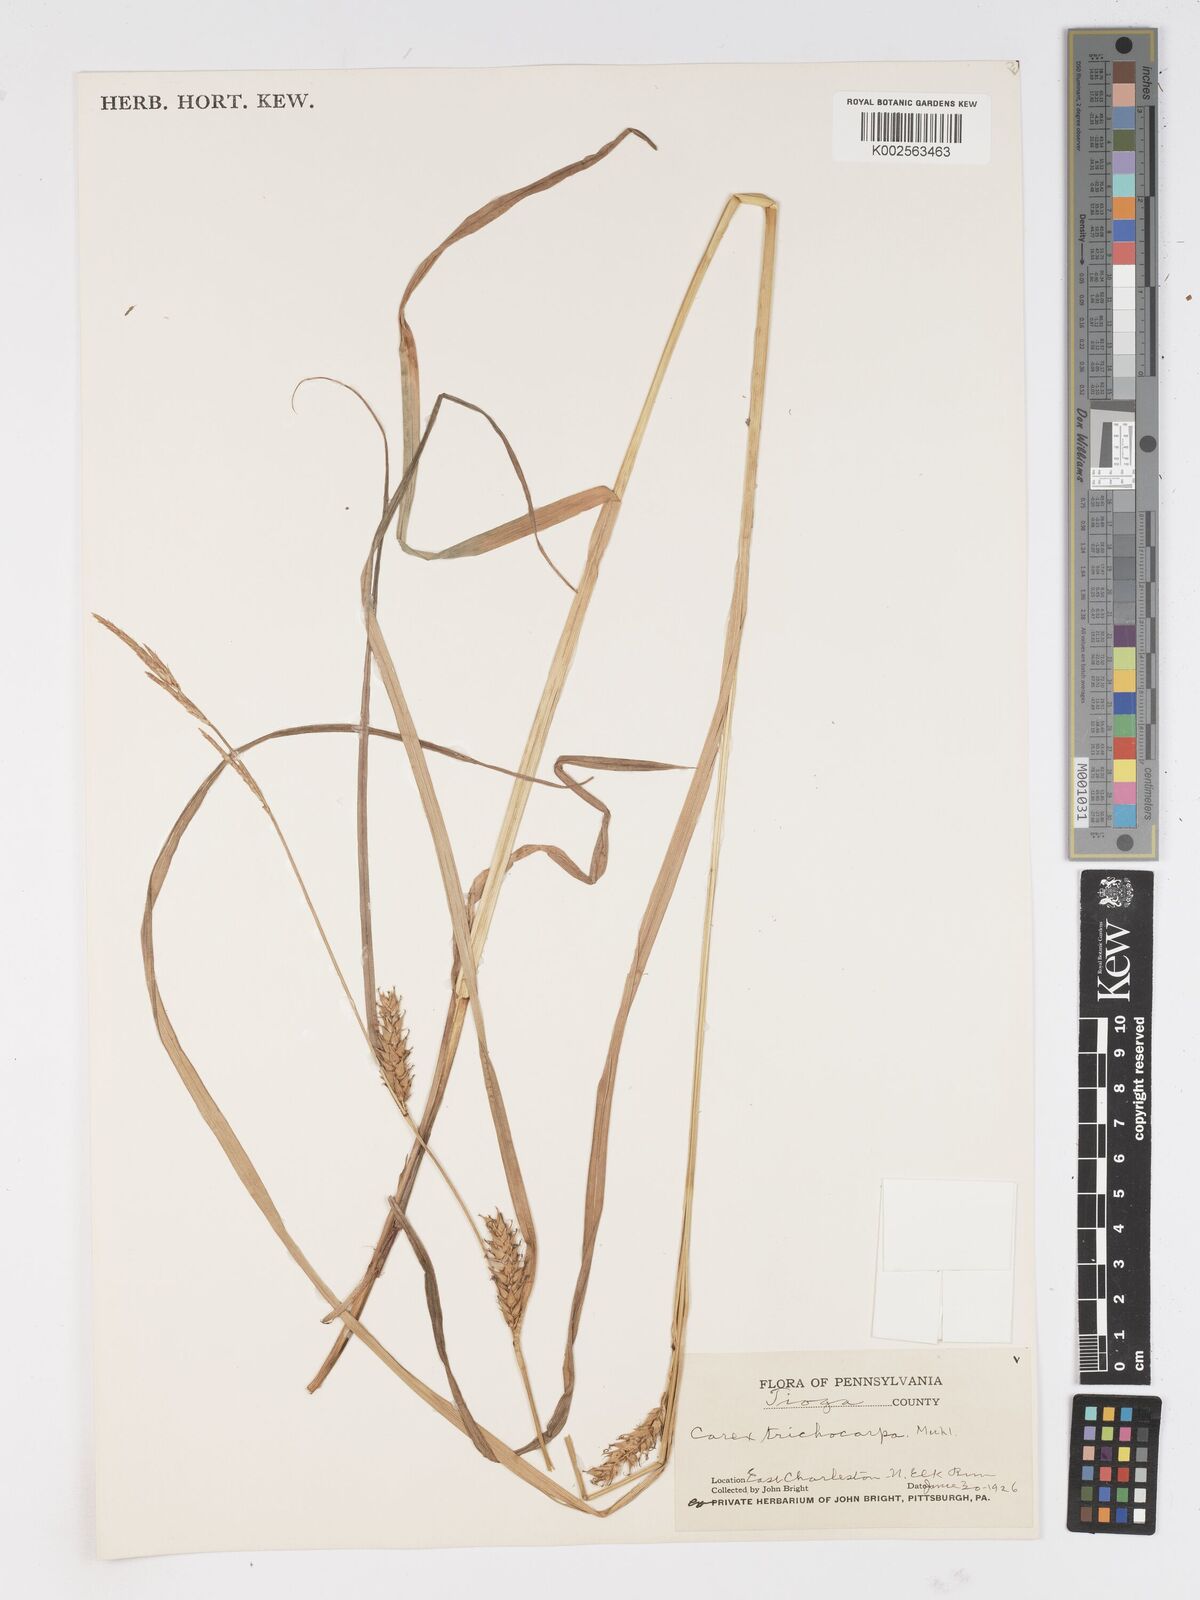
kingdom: Plantae
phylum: Tracheophyta
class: Liliopsida
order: Poales
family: Cyperaceae
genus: Carex
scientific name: Carex trichocarpa
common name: Hairy-fruited lake sedge
